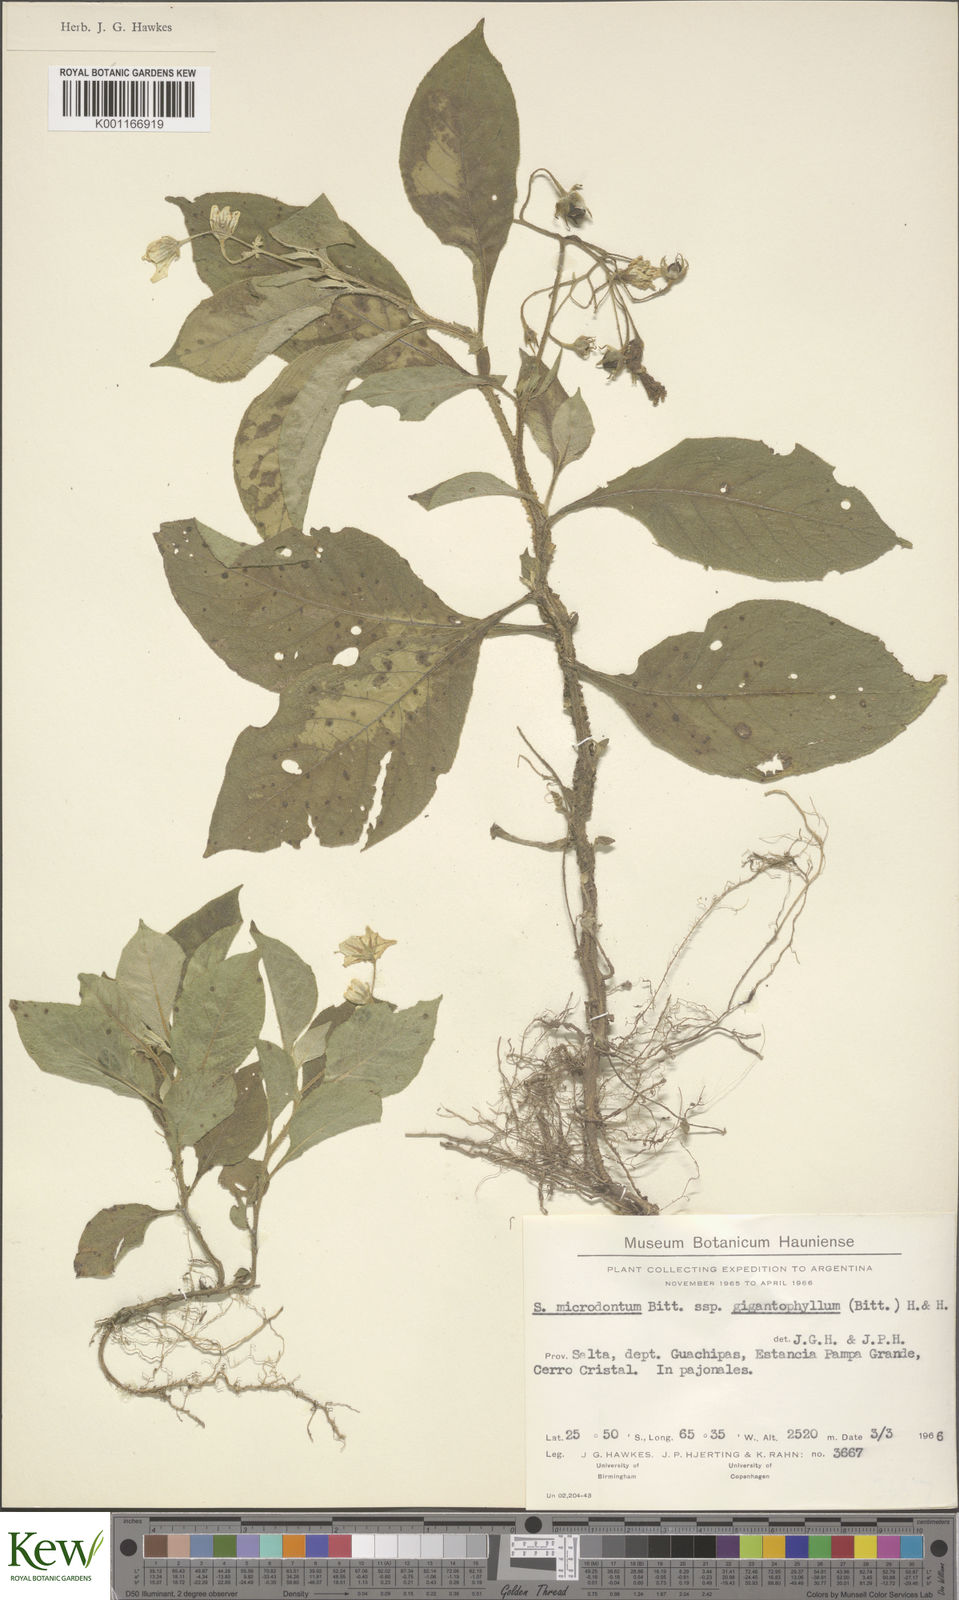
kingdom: Plantae
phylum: Tracheophyta
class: Magnoliopsida
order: Solanales
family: Solanaceae
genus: Solanum
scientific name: Solanum microdontum
